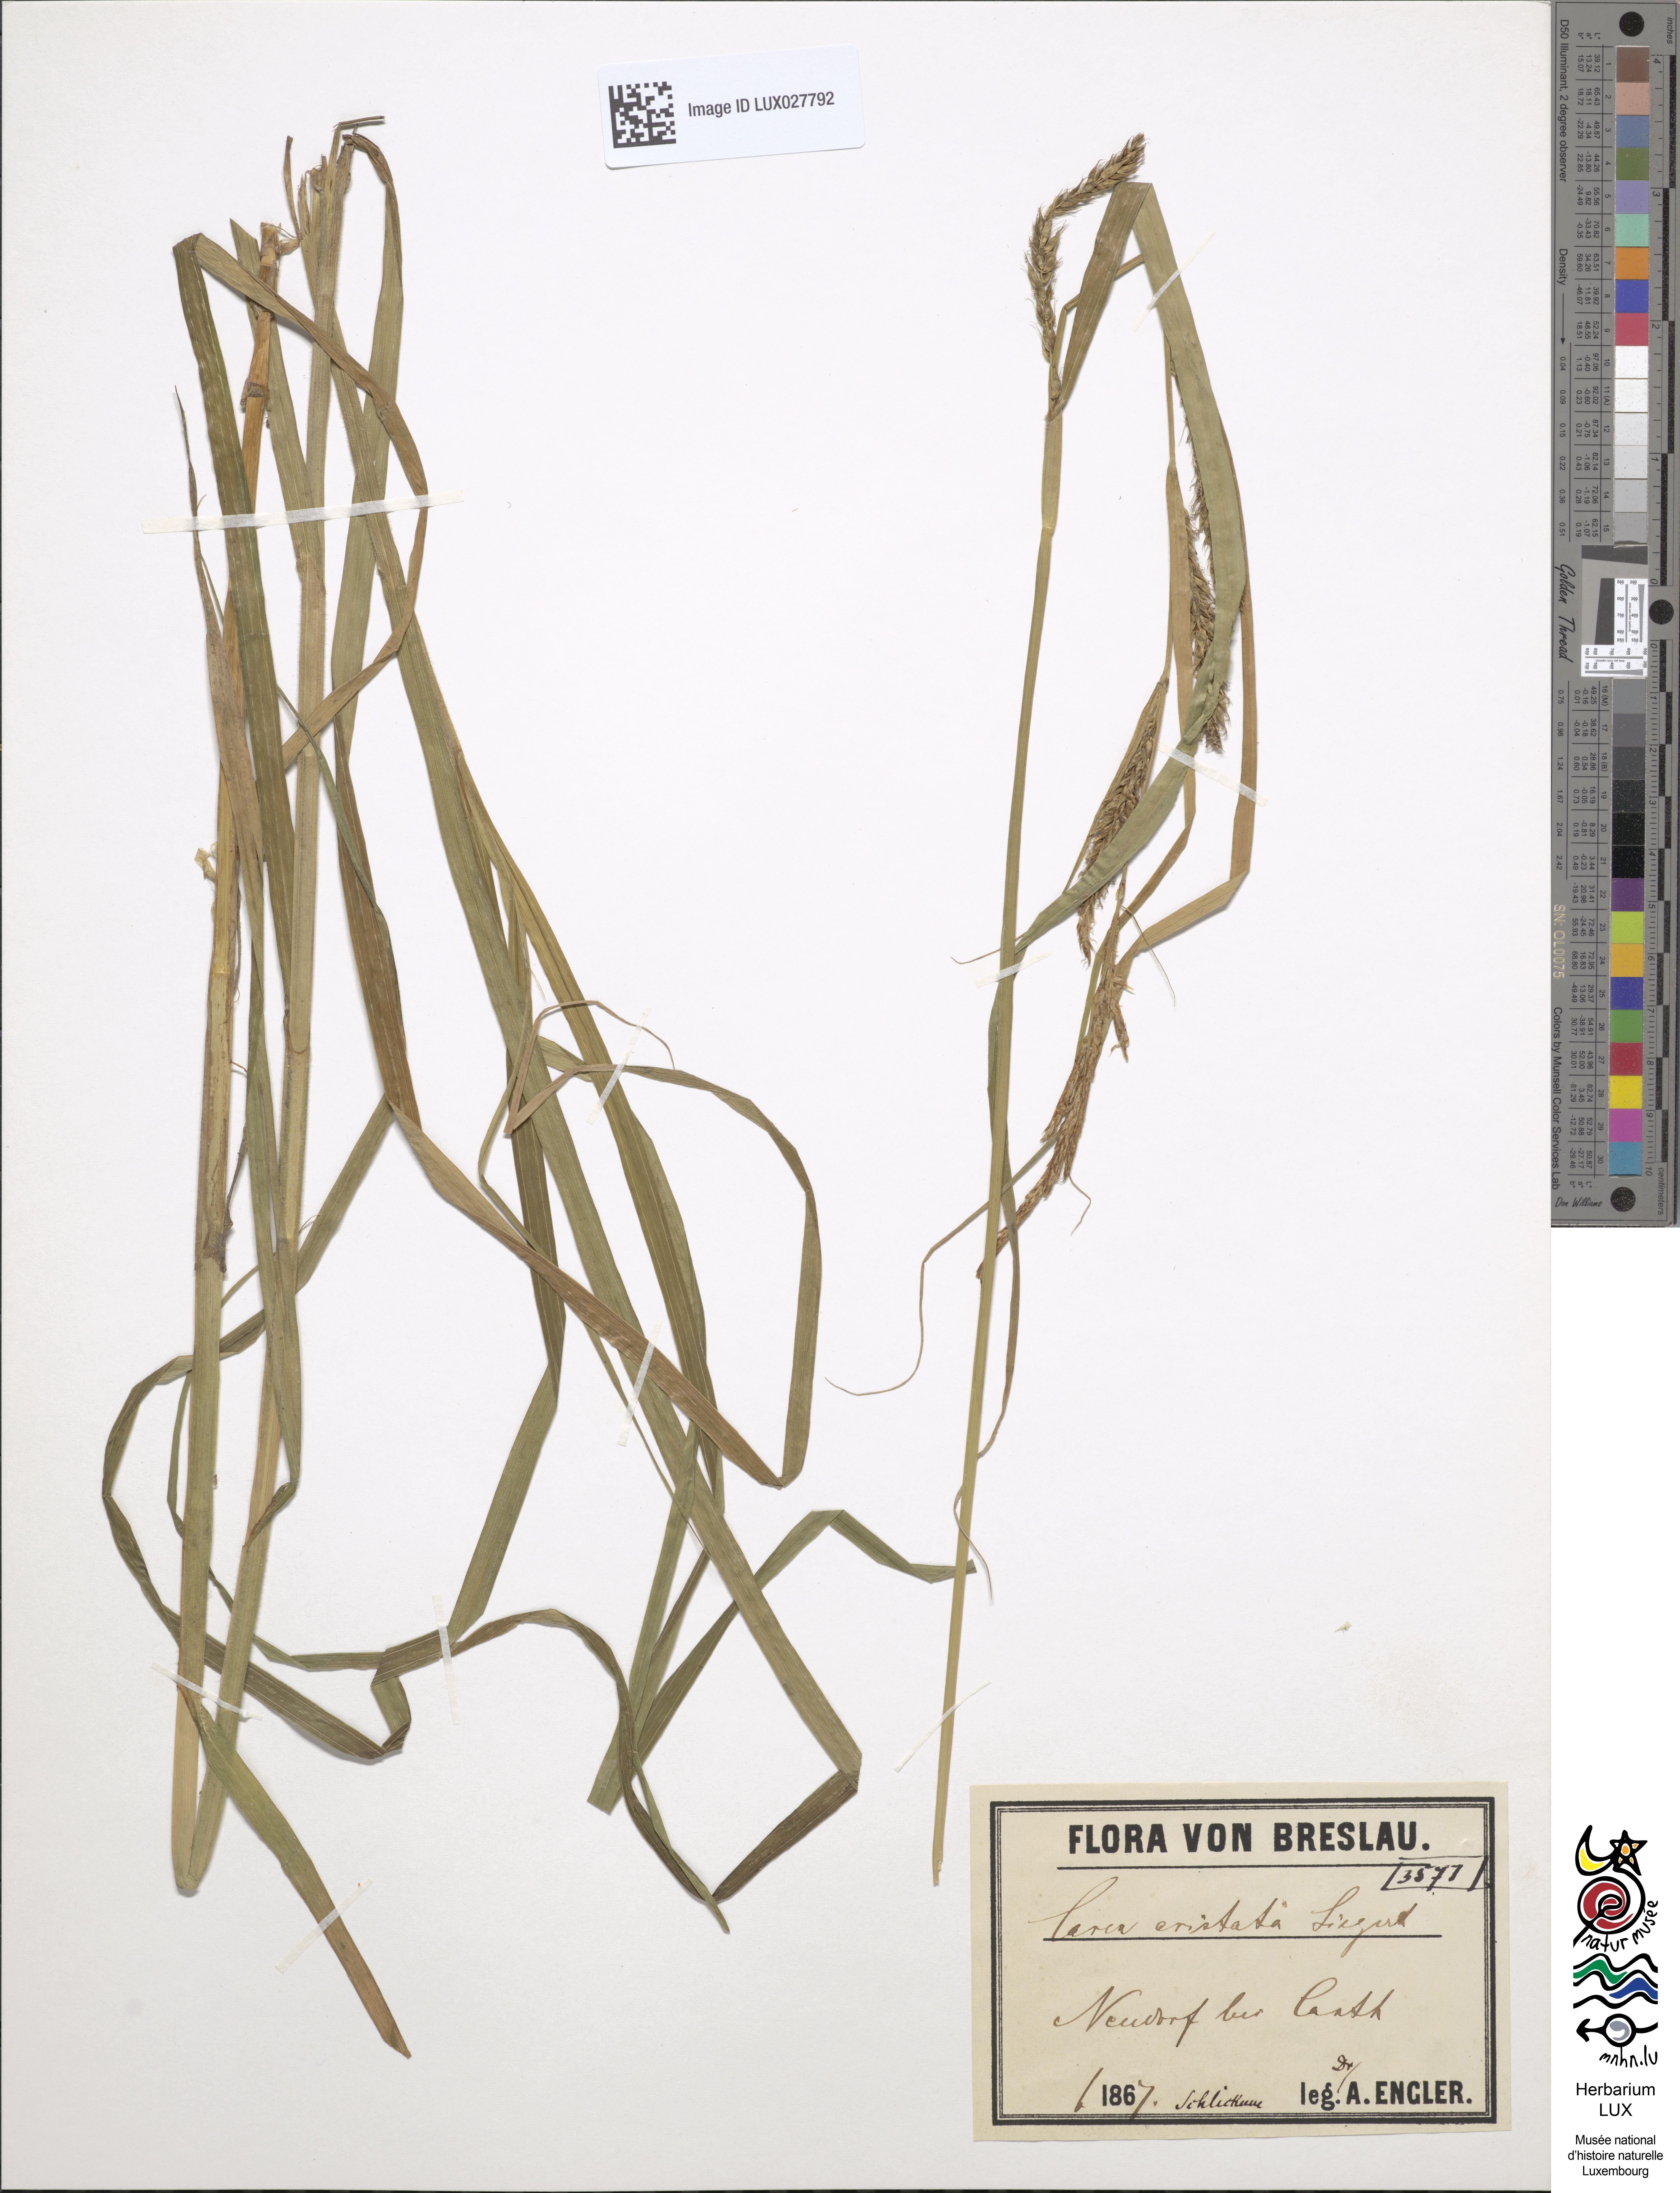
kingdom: Plantae
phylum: Tracheophyta
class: Liliopsida
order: Poales
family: Cyperaceae
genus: Carex
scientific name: Carex atherodes
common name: Wheat sedge
